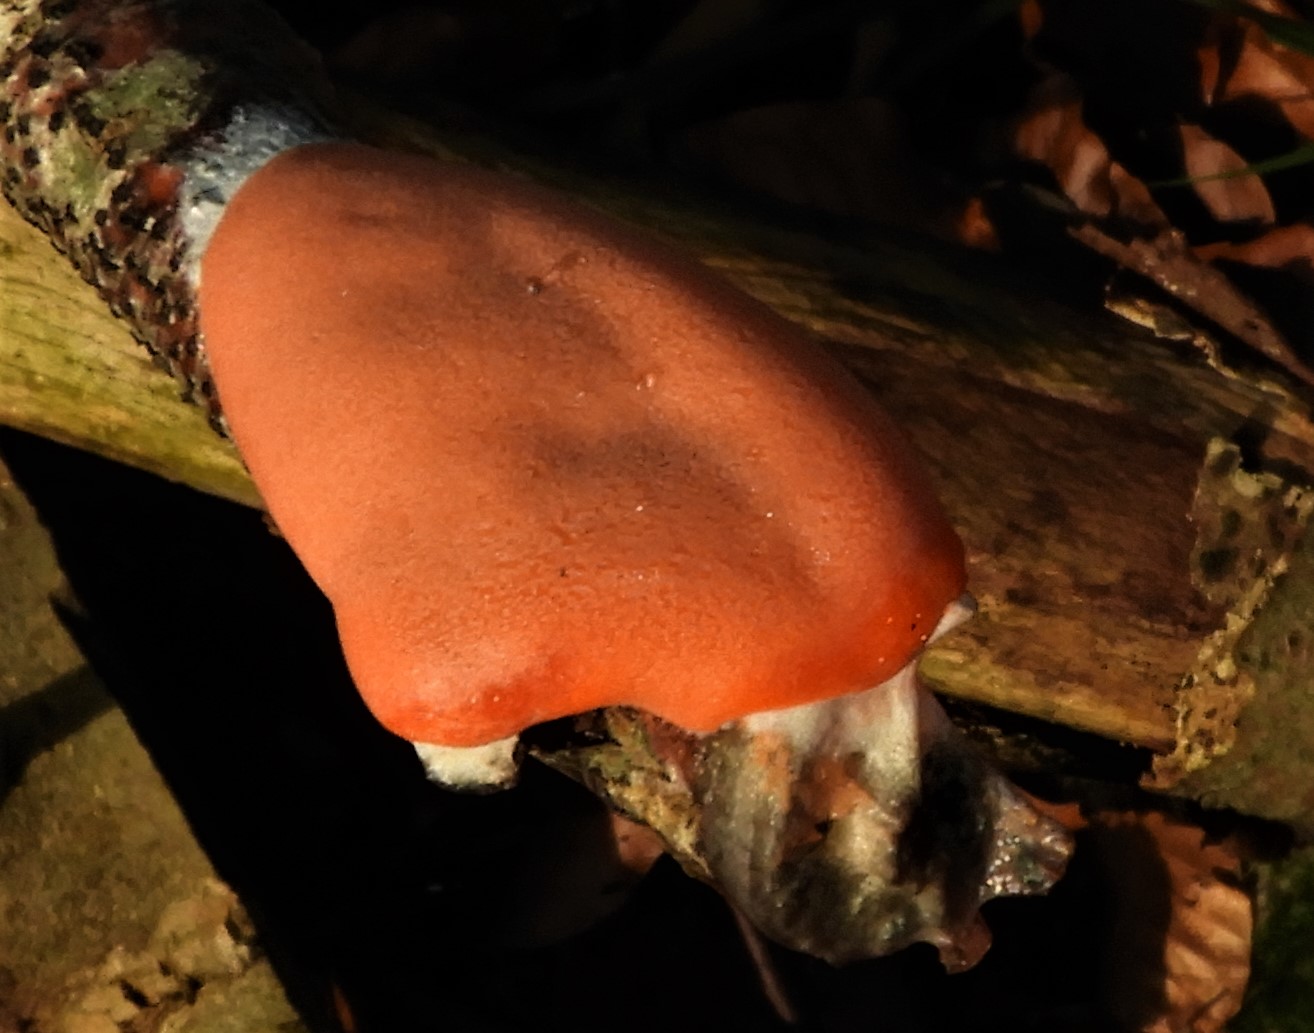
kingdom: Protozoa
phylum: Mycetozoa
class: Myxomycetes
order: Trichiales
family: Dictydiaethaliaceae
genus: Dictydiaethalium
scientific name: Dictydiaethalium plumbeum
